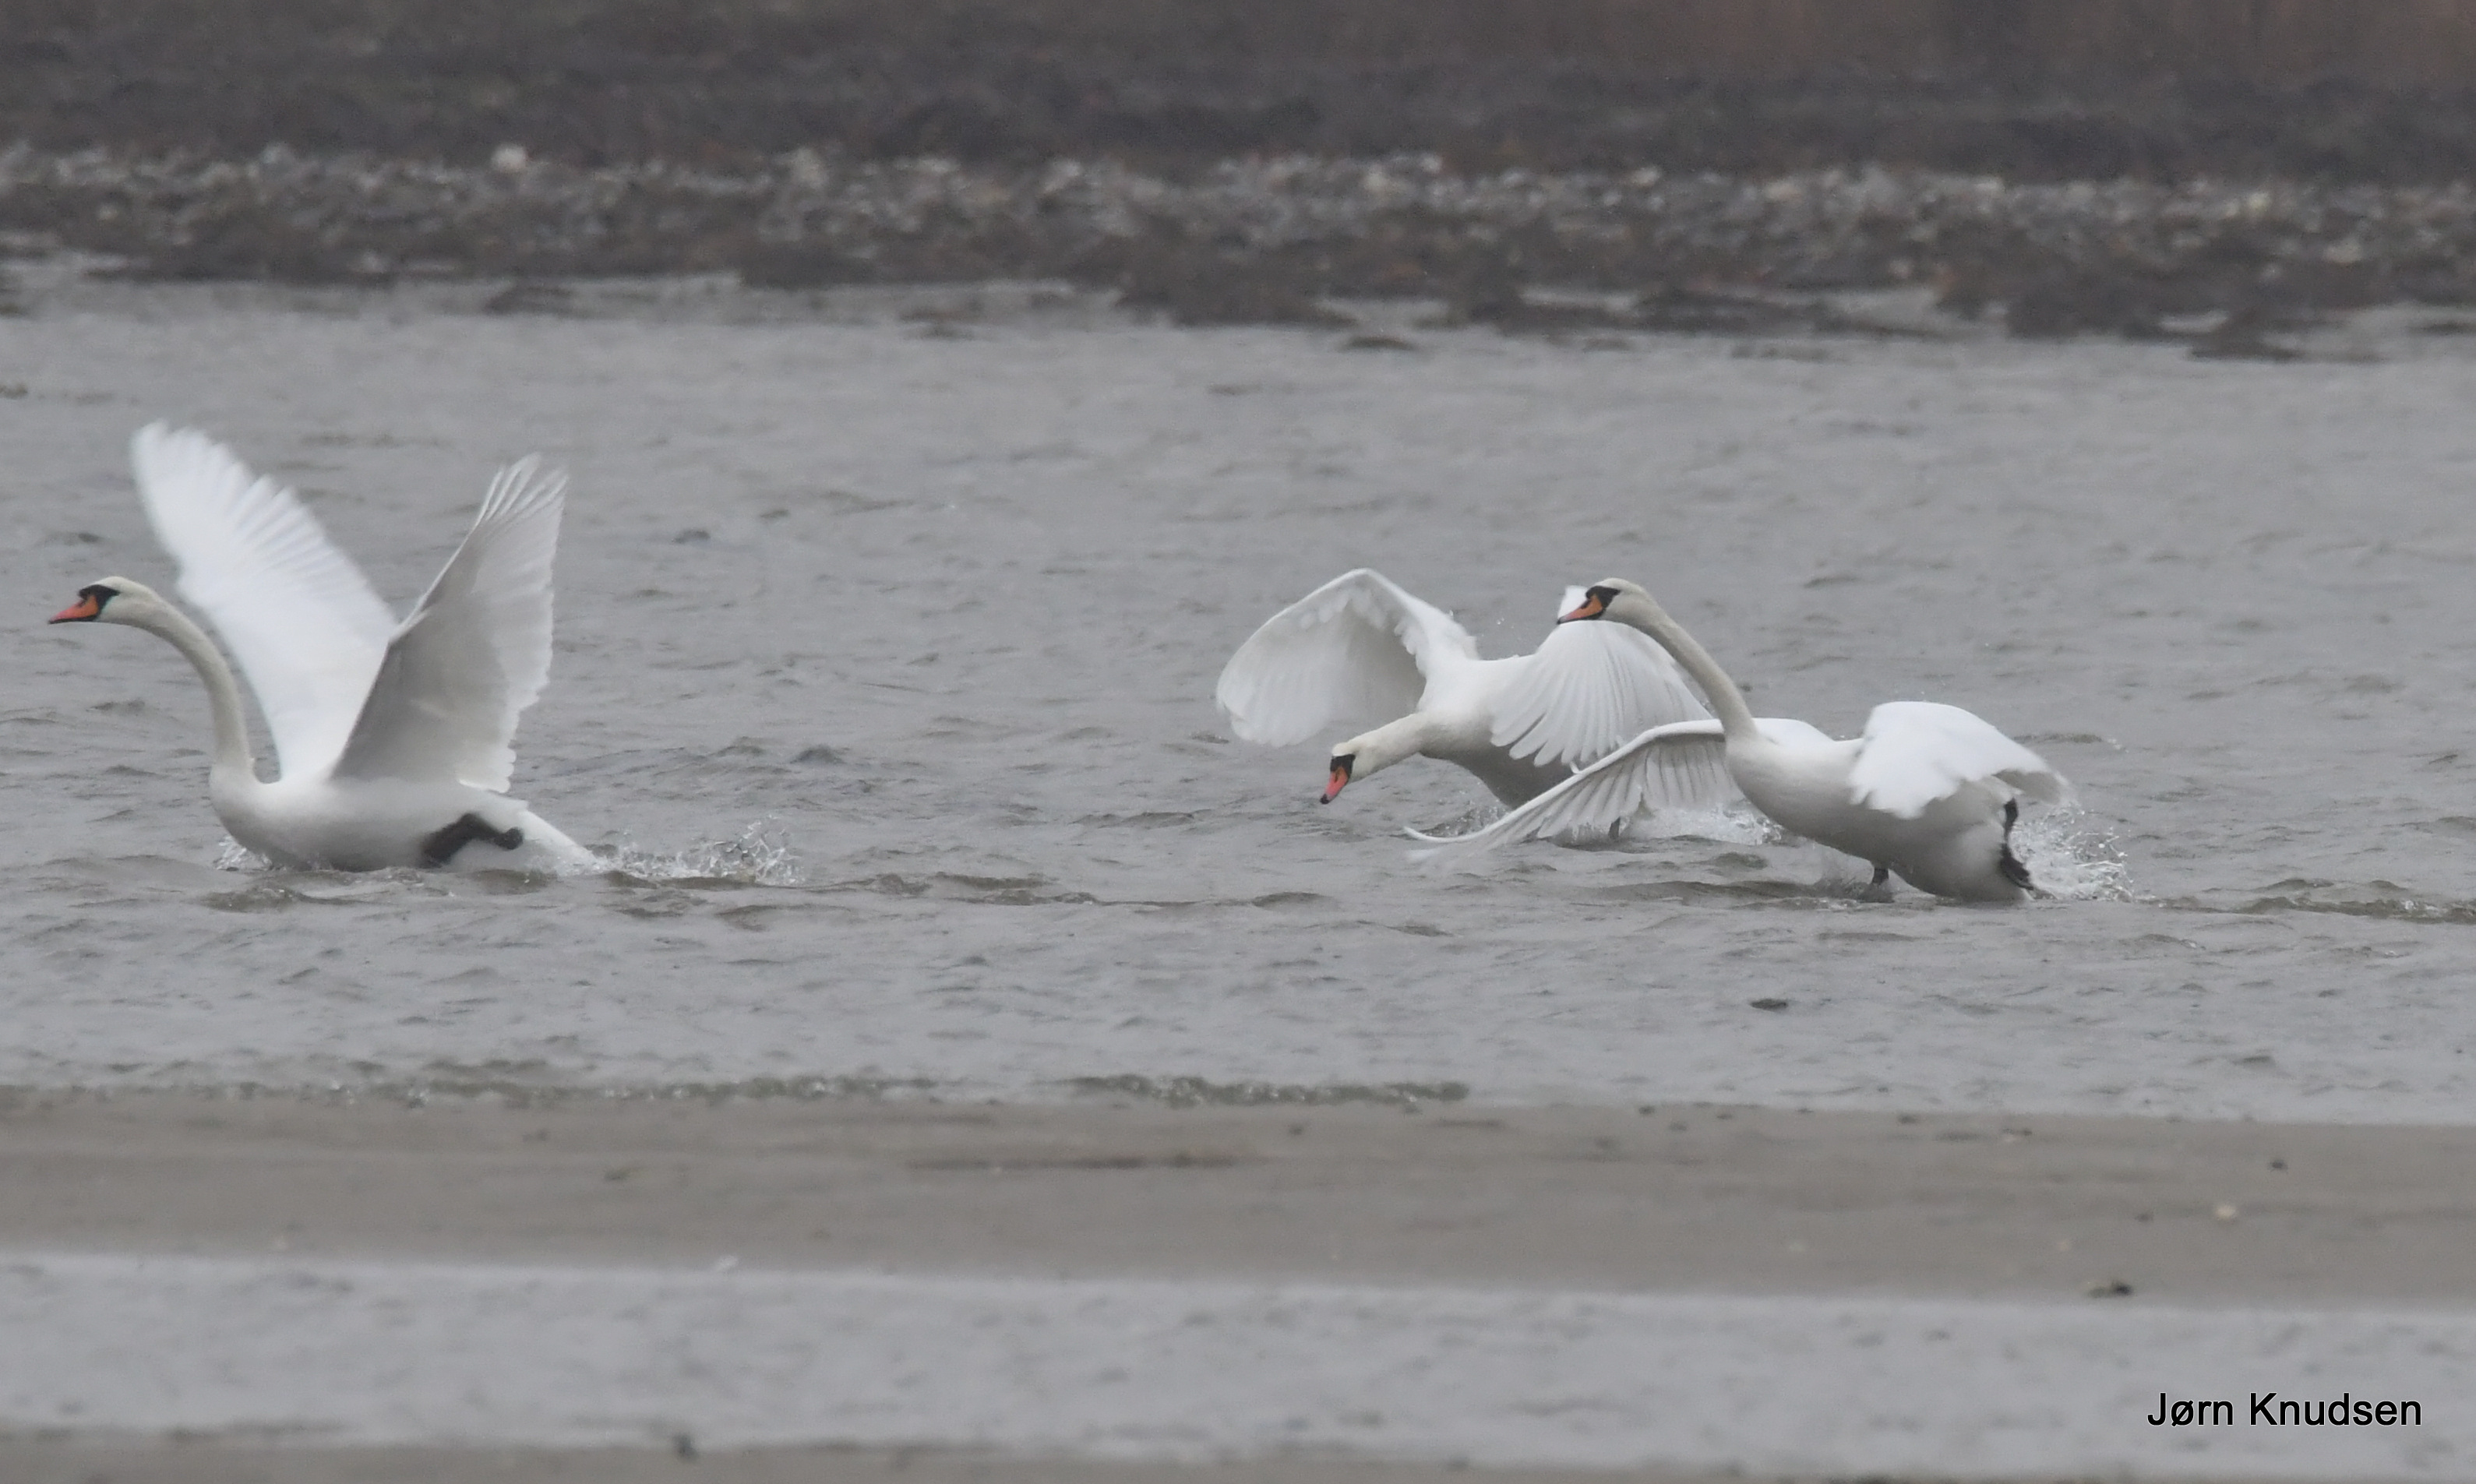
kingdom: Animalia
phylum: Chordata
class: Aves
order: Anseriformes
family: Anatidae
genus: Cygnus
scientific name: Cygnus olor
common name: Knopsvane
